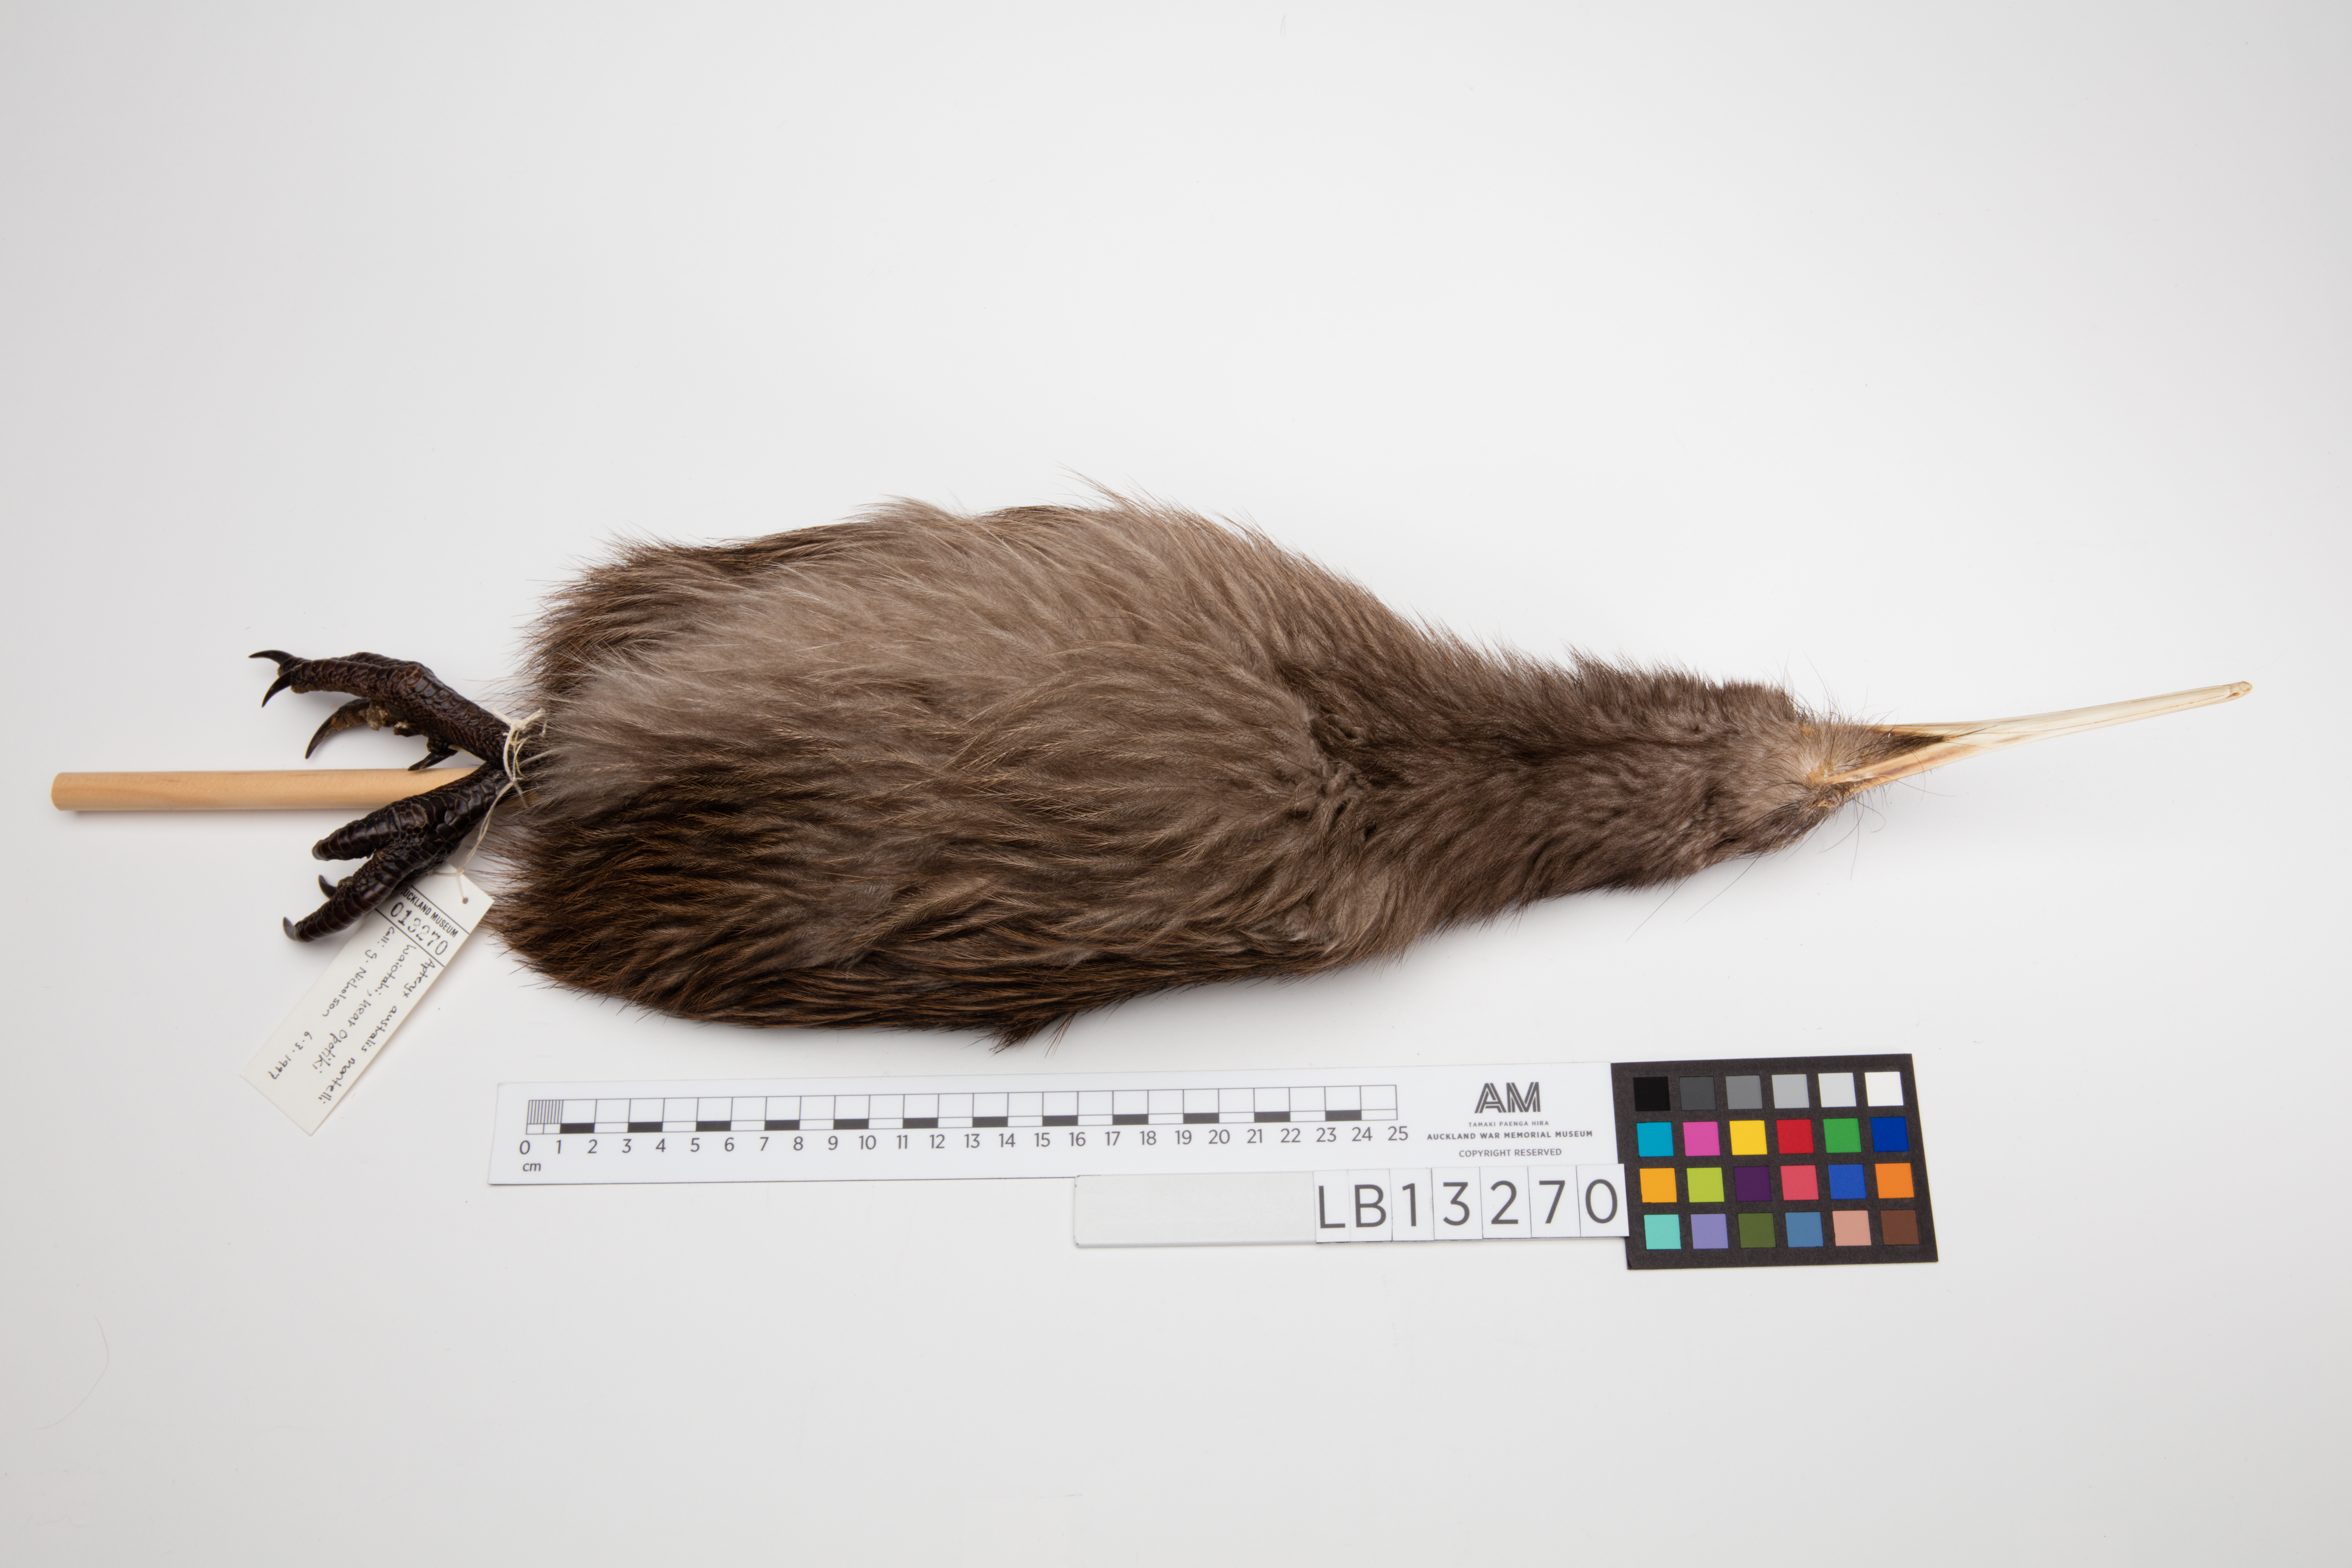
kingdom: Animalia
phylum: Chordata
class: Aves
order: Apterygiformes
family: Apterygidae
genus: Apteryx
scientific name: Apteryx mantelli
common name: North island brown kiwi
